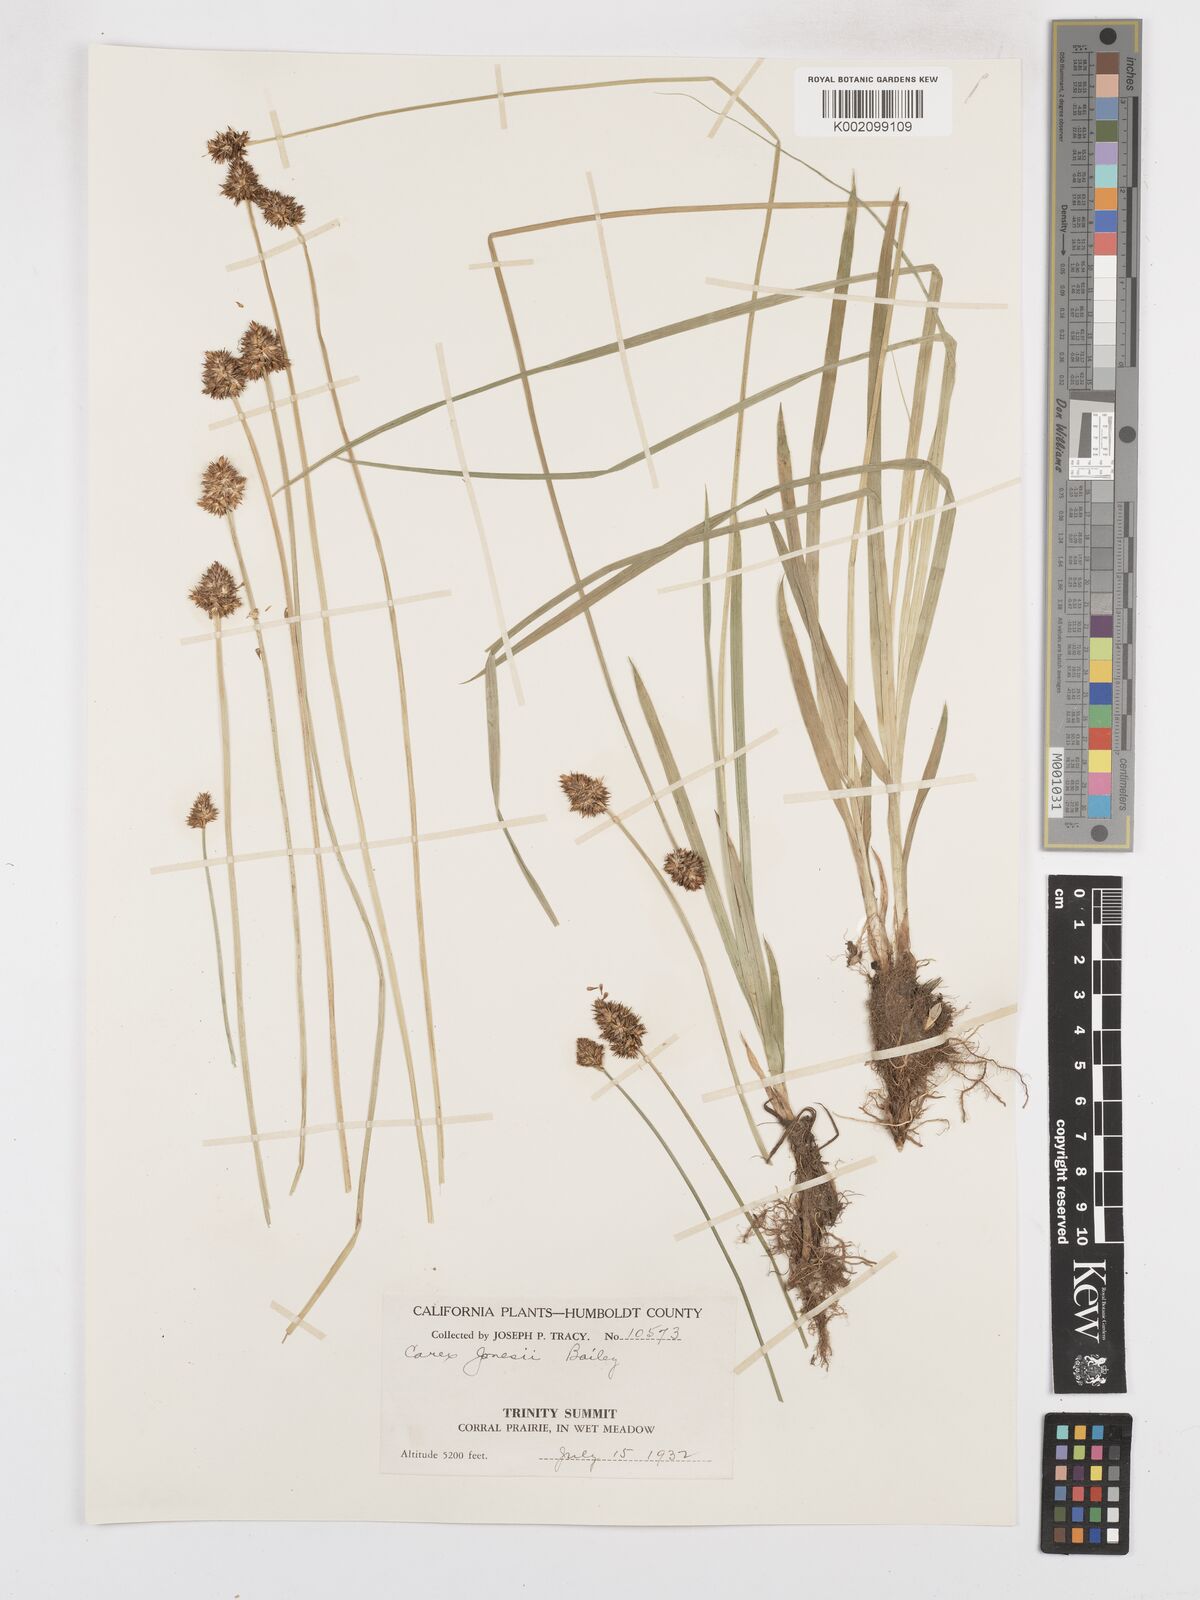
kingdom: Plantae
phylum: Tracheophyta
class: Liliopsida
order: Poales
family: Cyperaceae
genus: Carex
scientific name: Carex jonesii
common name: Jones' sedge
